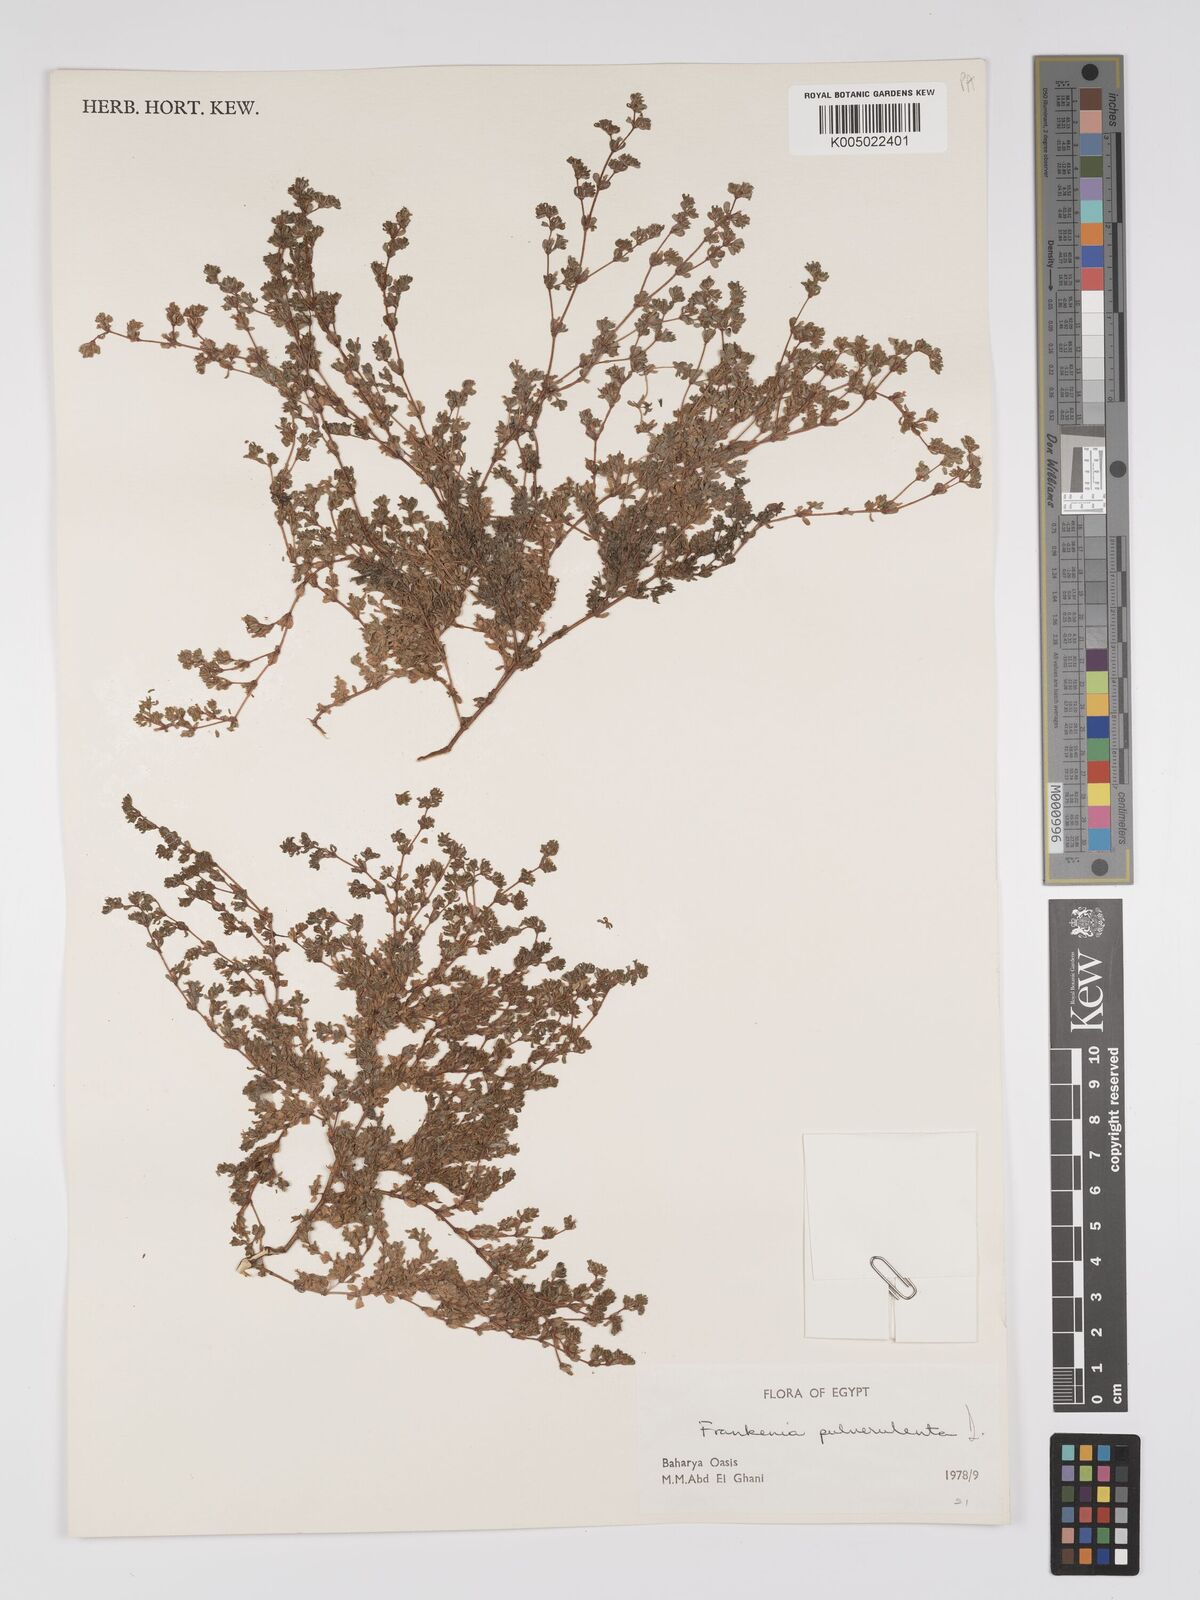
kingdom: Plantae
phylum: Tracheophyta
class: Magnoliopsida
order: Caryophyllales
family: Frankeniaceae
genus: Frankenia
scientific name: Frankenia pulverulenta
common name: European seaheath
